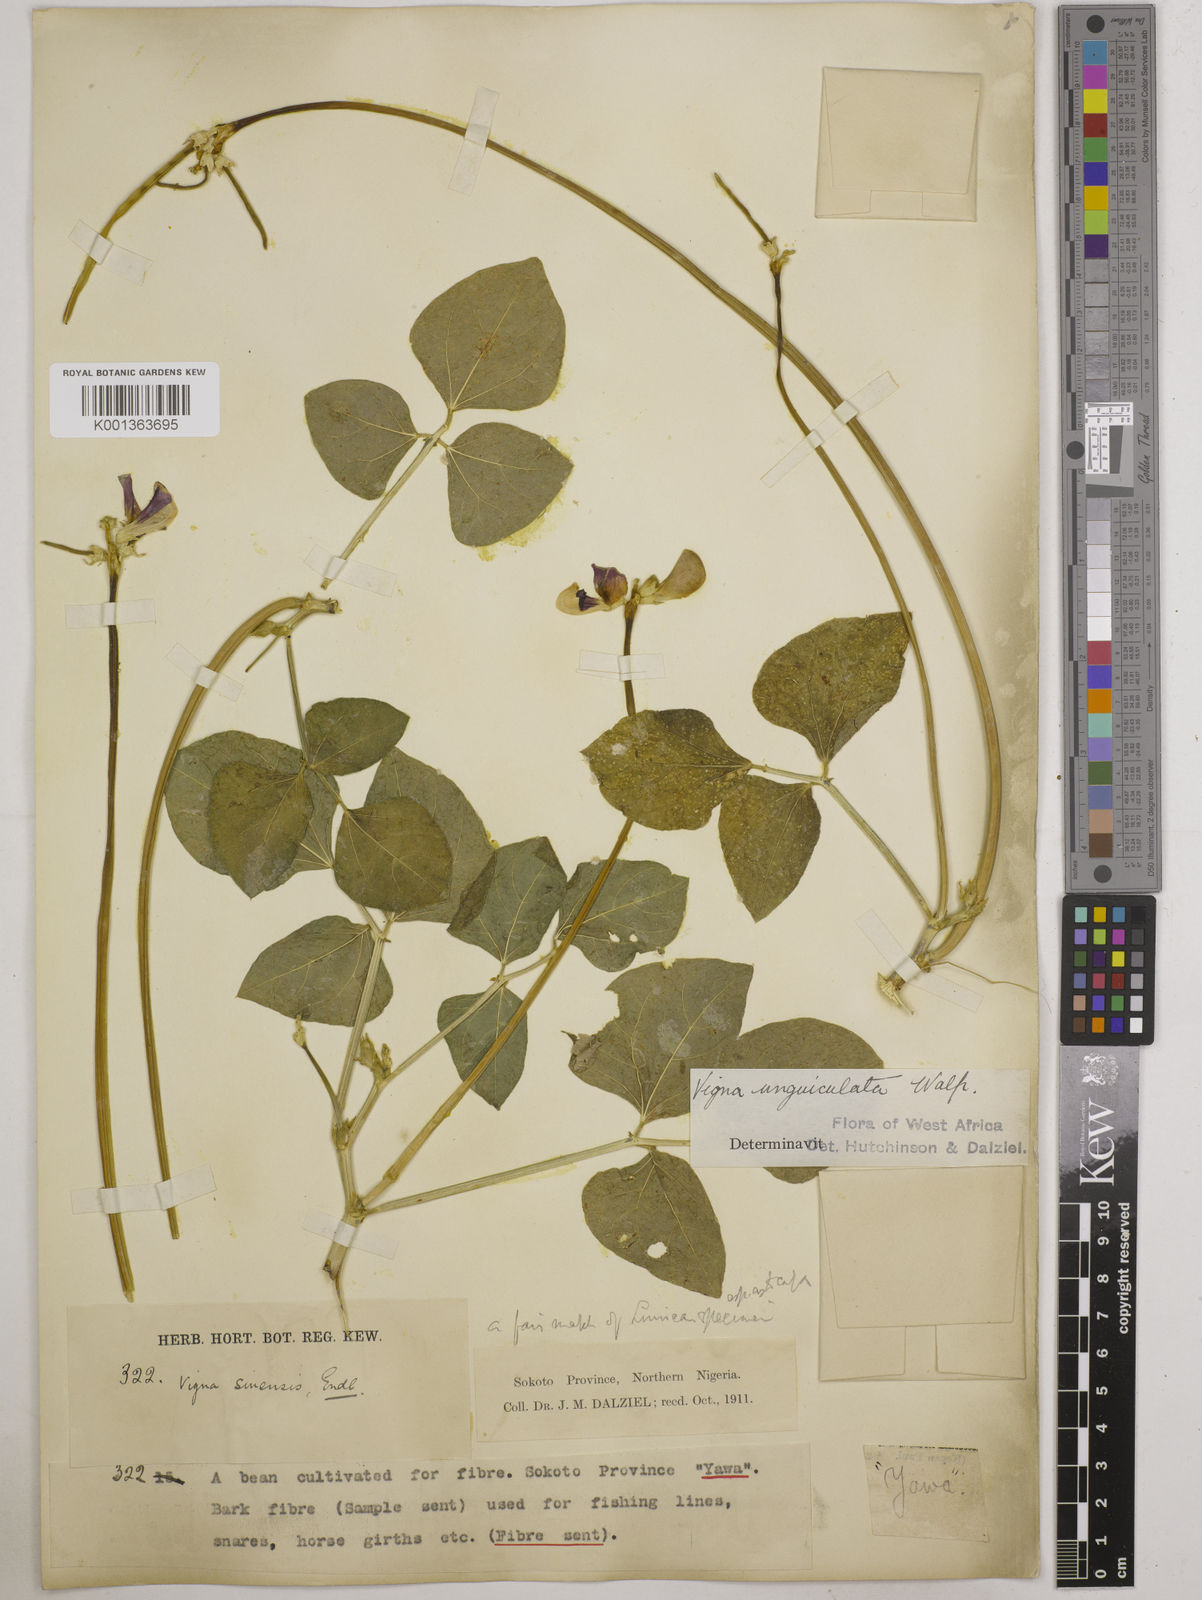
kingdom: Plantae
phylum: Tracheophyta
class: Magnoliopsida
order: Fabales
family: Fabaceae
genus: Vigna
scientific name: Vigna unguiculata
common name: Cowpea
